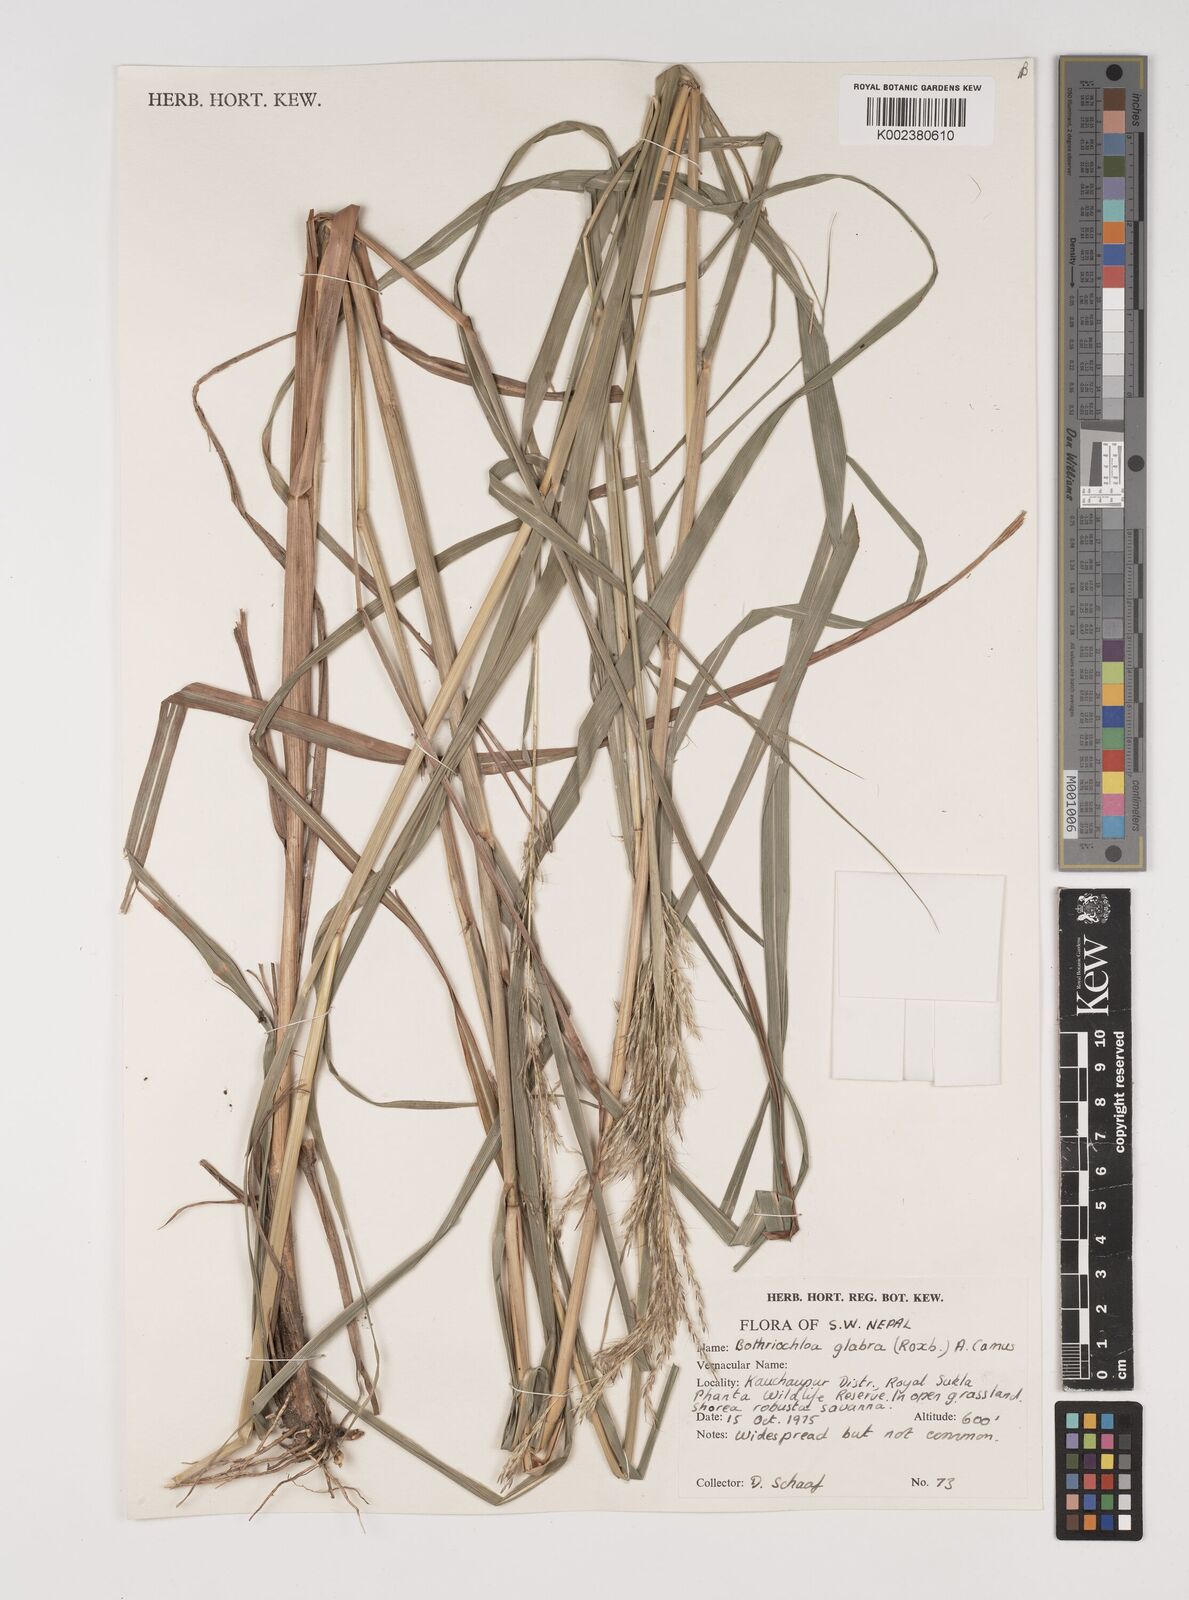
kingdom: Plantae
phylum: Tracheophyta
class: Liliopsida
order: Poales
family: Poaceae
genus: Bothriochloa
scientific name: Bothriochloa bladhii
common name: Caucasian bluestem
